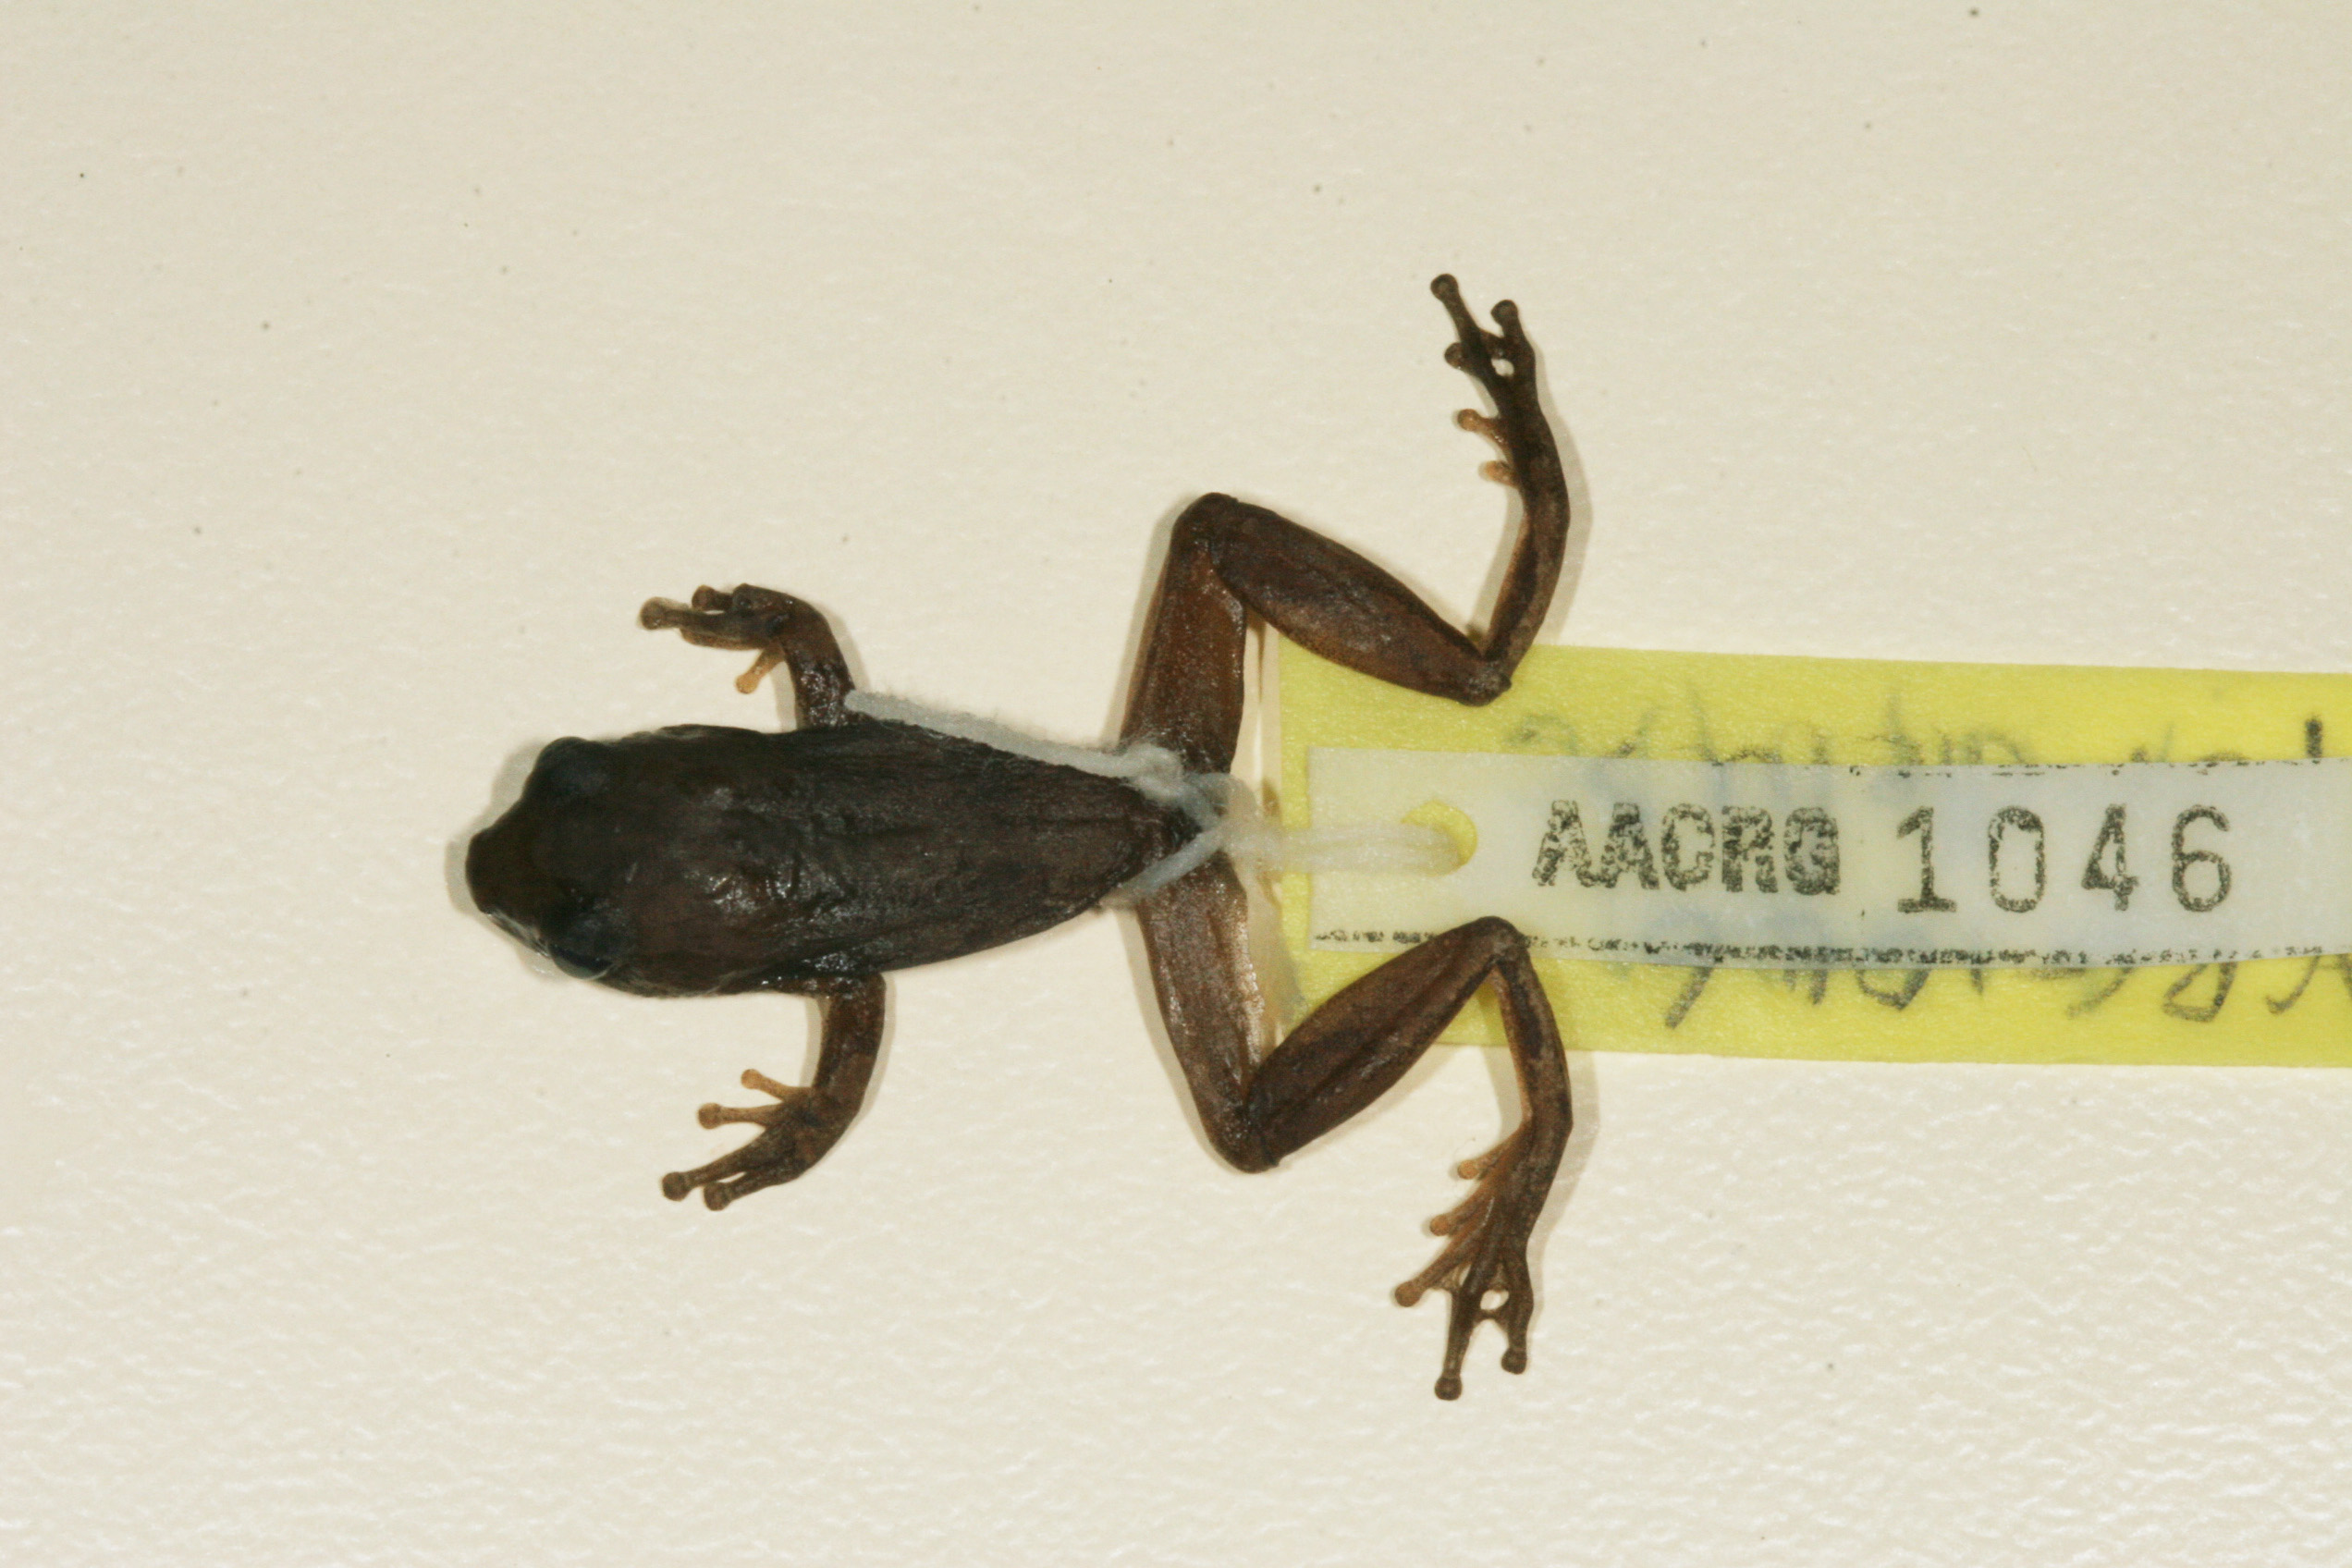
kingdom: Animalia
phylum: Chordata
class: Amphibia
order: Anura
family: Hyperoliidae
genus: Hyperolius
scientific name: Hyperolius parallelus
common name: Angolan reed frog
